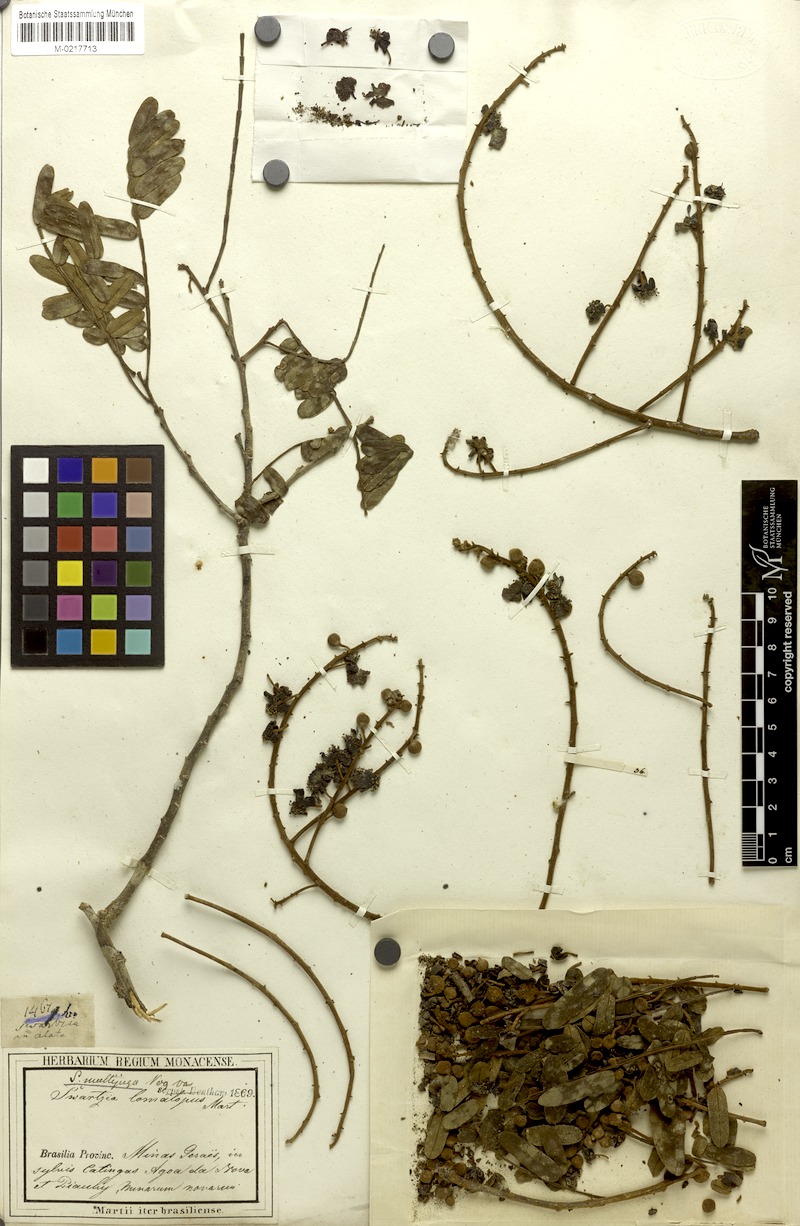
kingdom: Plantae
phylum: Tracheophyta
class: Magnoliopsida
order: Fabales
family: Fabaceae
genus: Swartzia
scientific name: Swartzia multijuga
